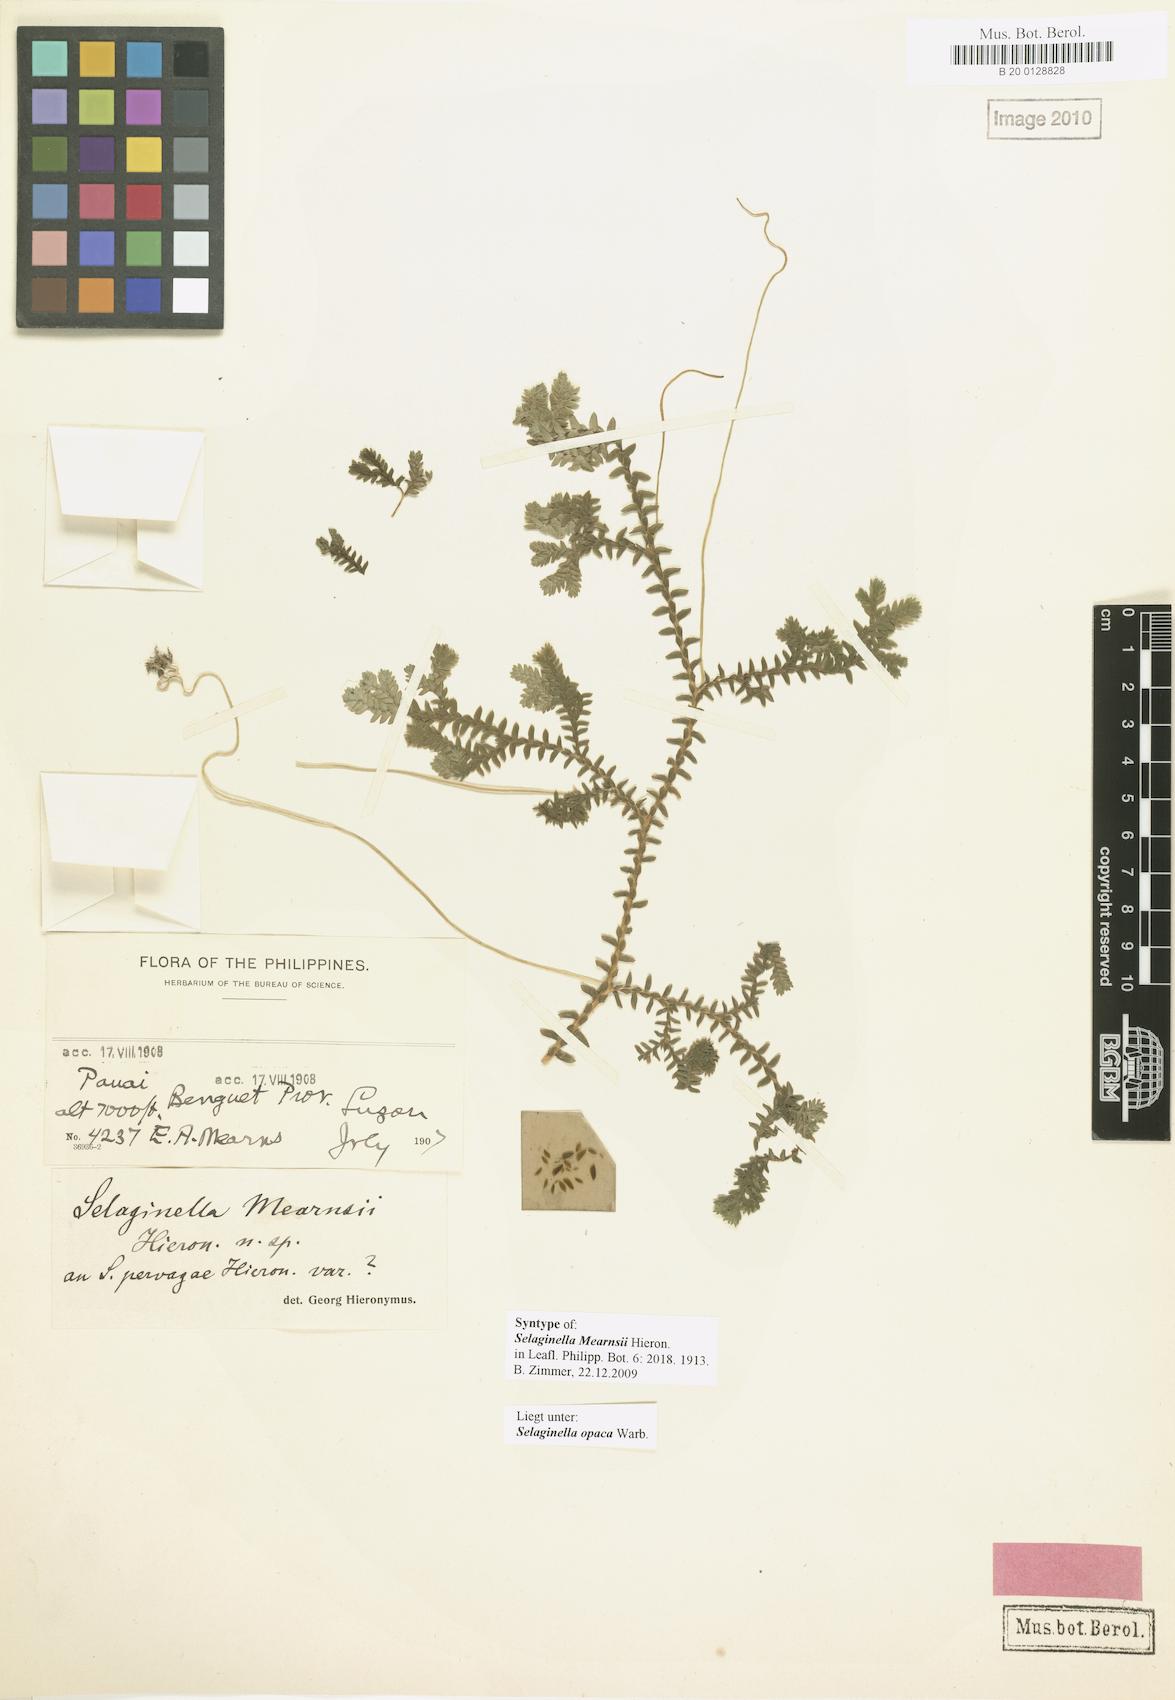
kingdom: Plantae
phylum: Tracheophyta
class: Lycopodiopsida
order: Selaginellales
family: Selaginellaceae
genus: Selaginella
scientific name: Selaginella opaca
